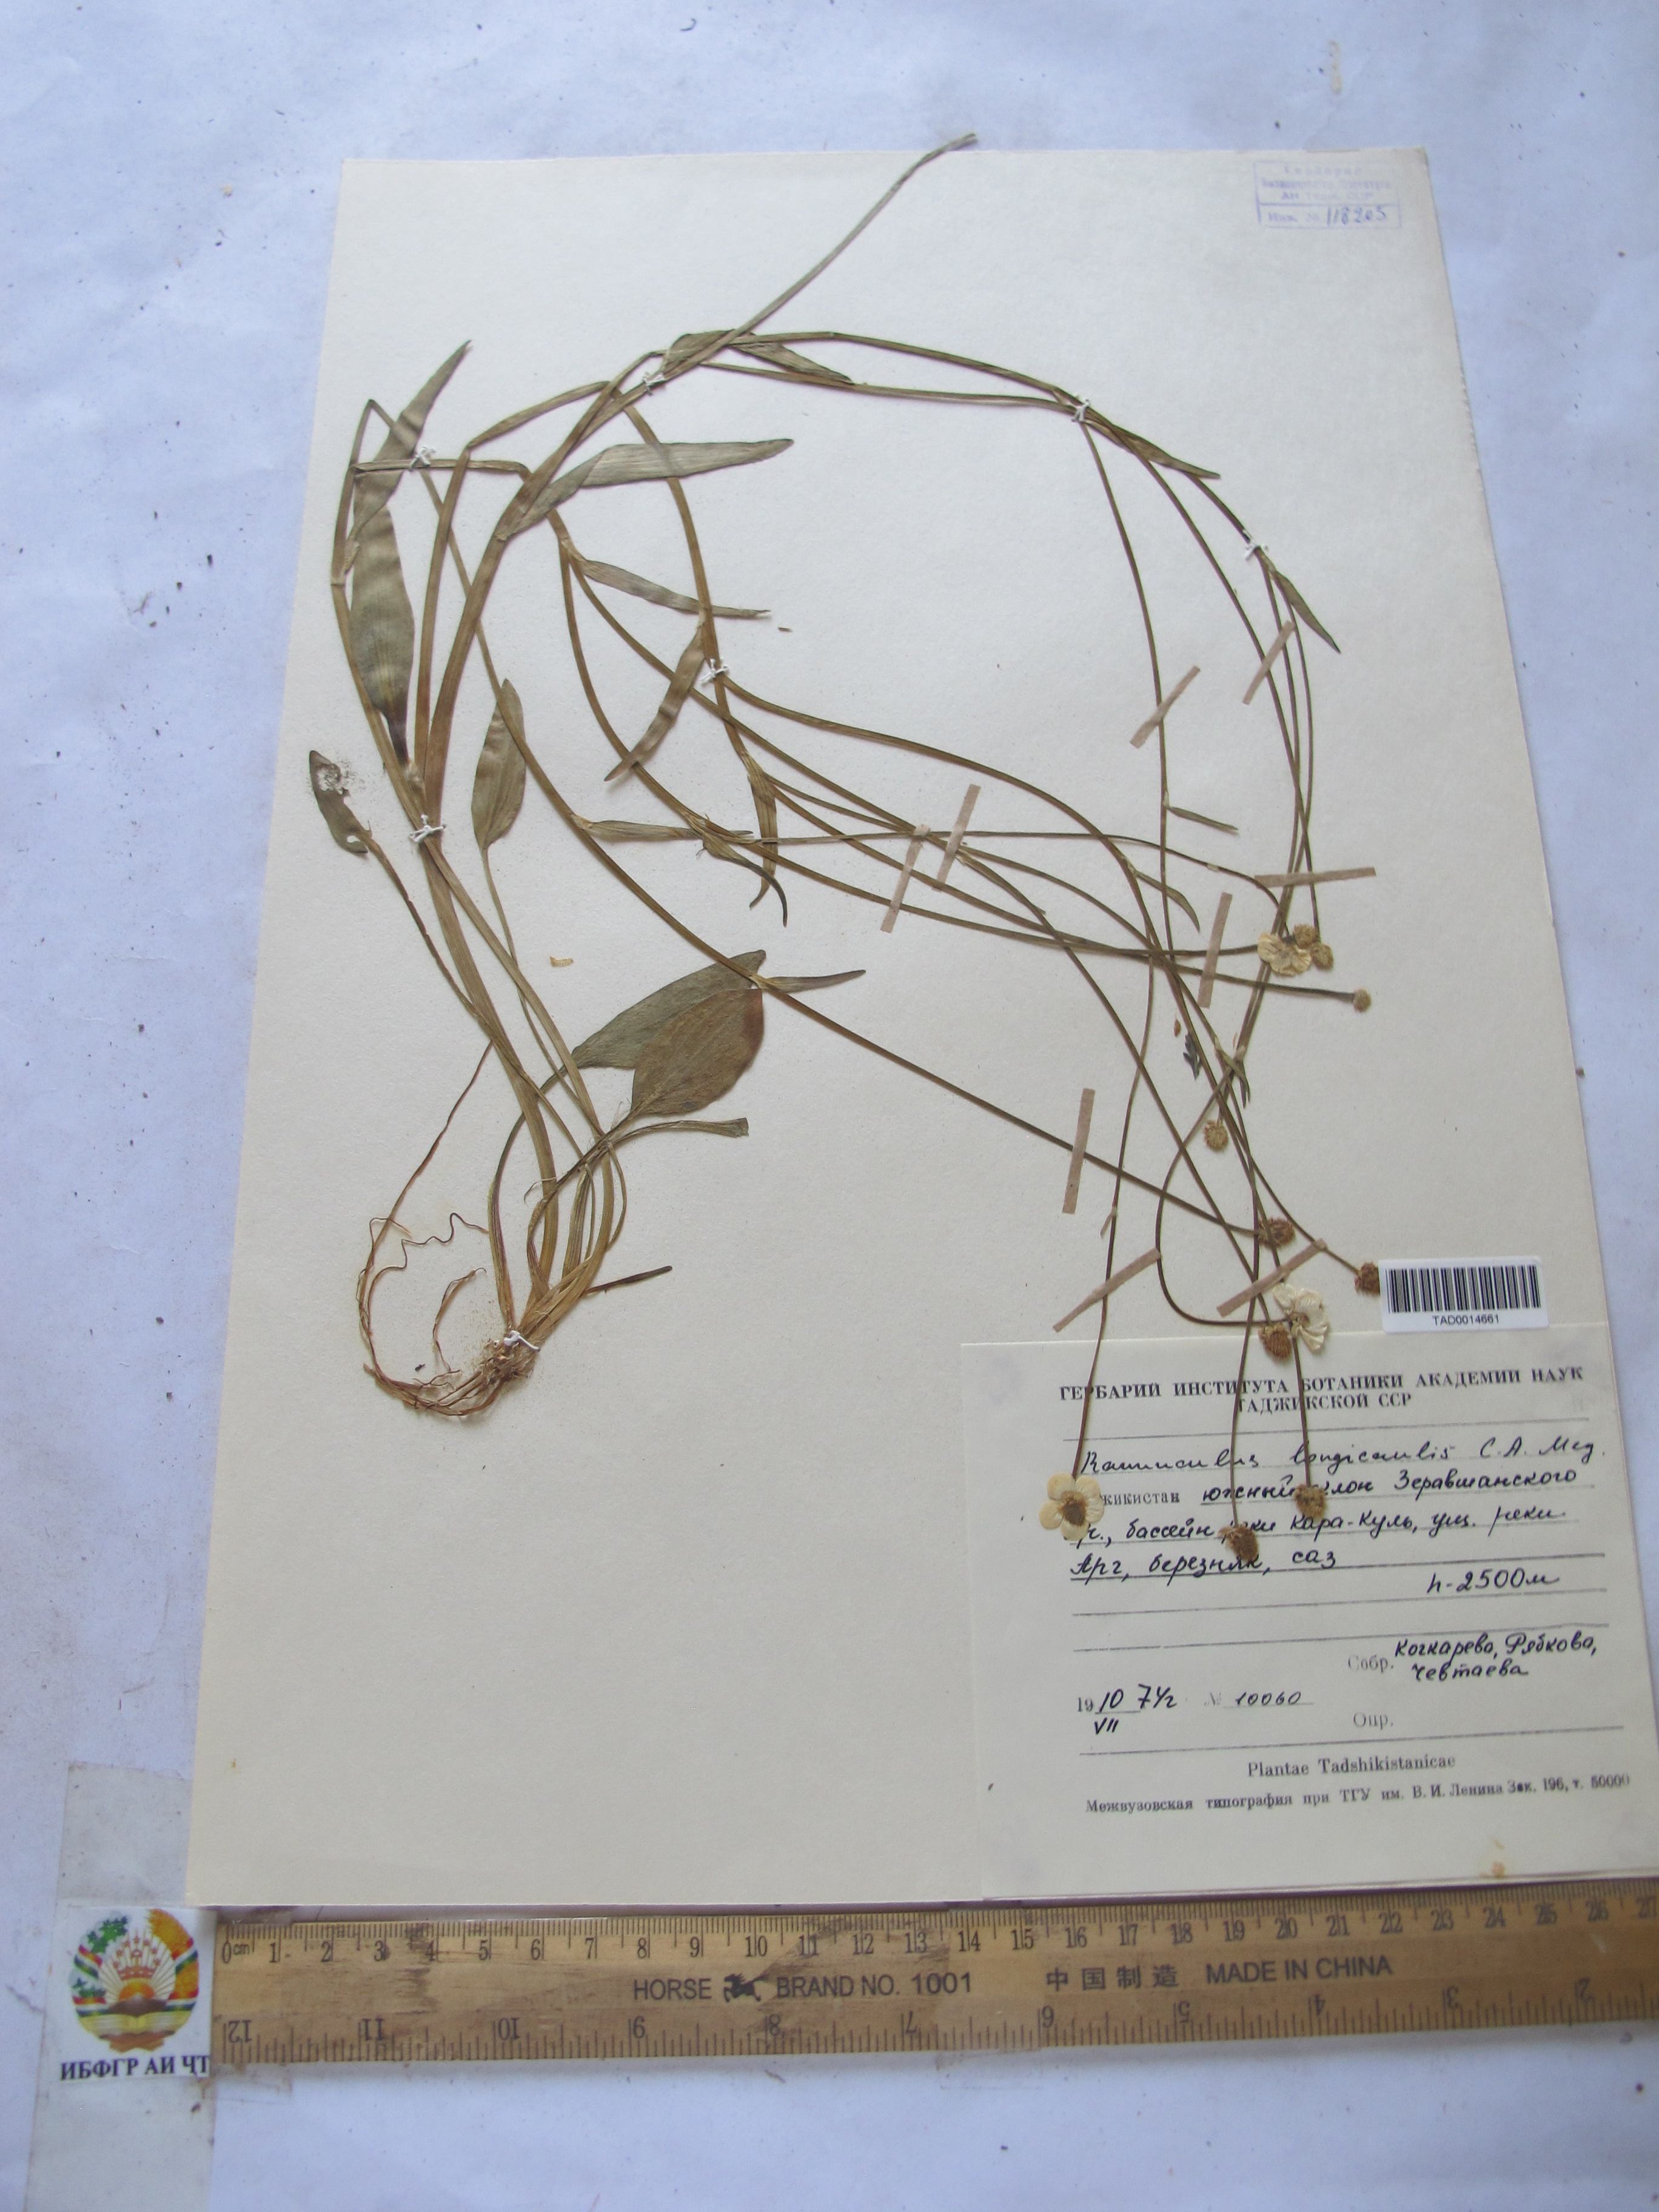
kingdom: Plantae
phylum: Tracheophyta
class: Magnoliopsida
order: Ranunculales
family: Ranunculaceae
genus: Ranunculus
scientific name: Ranunculus longicaulis
